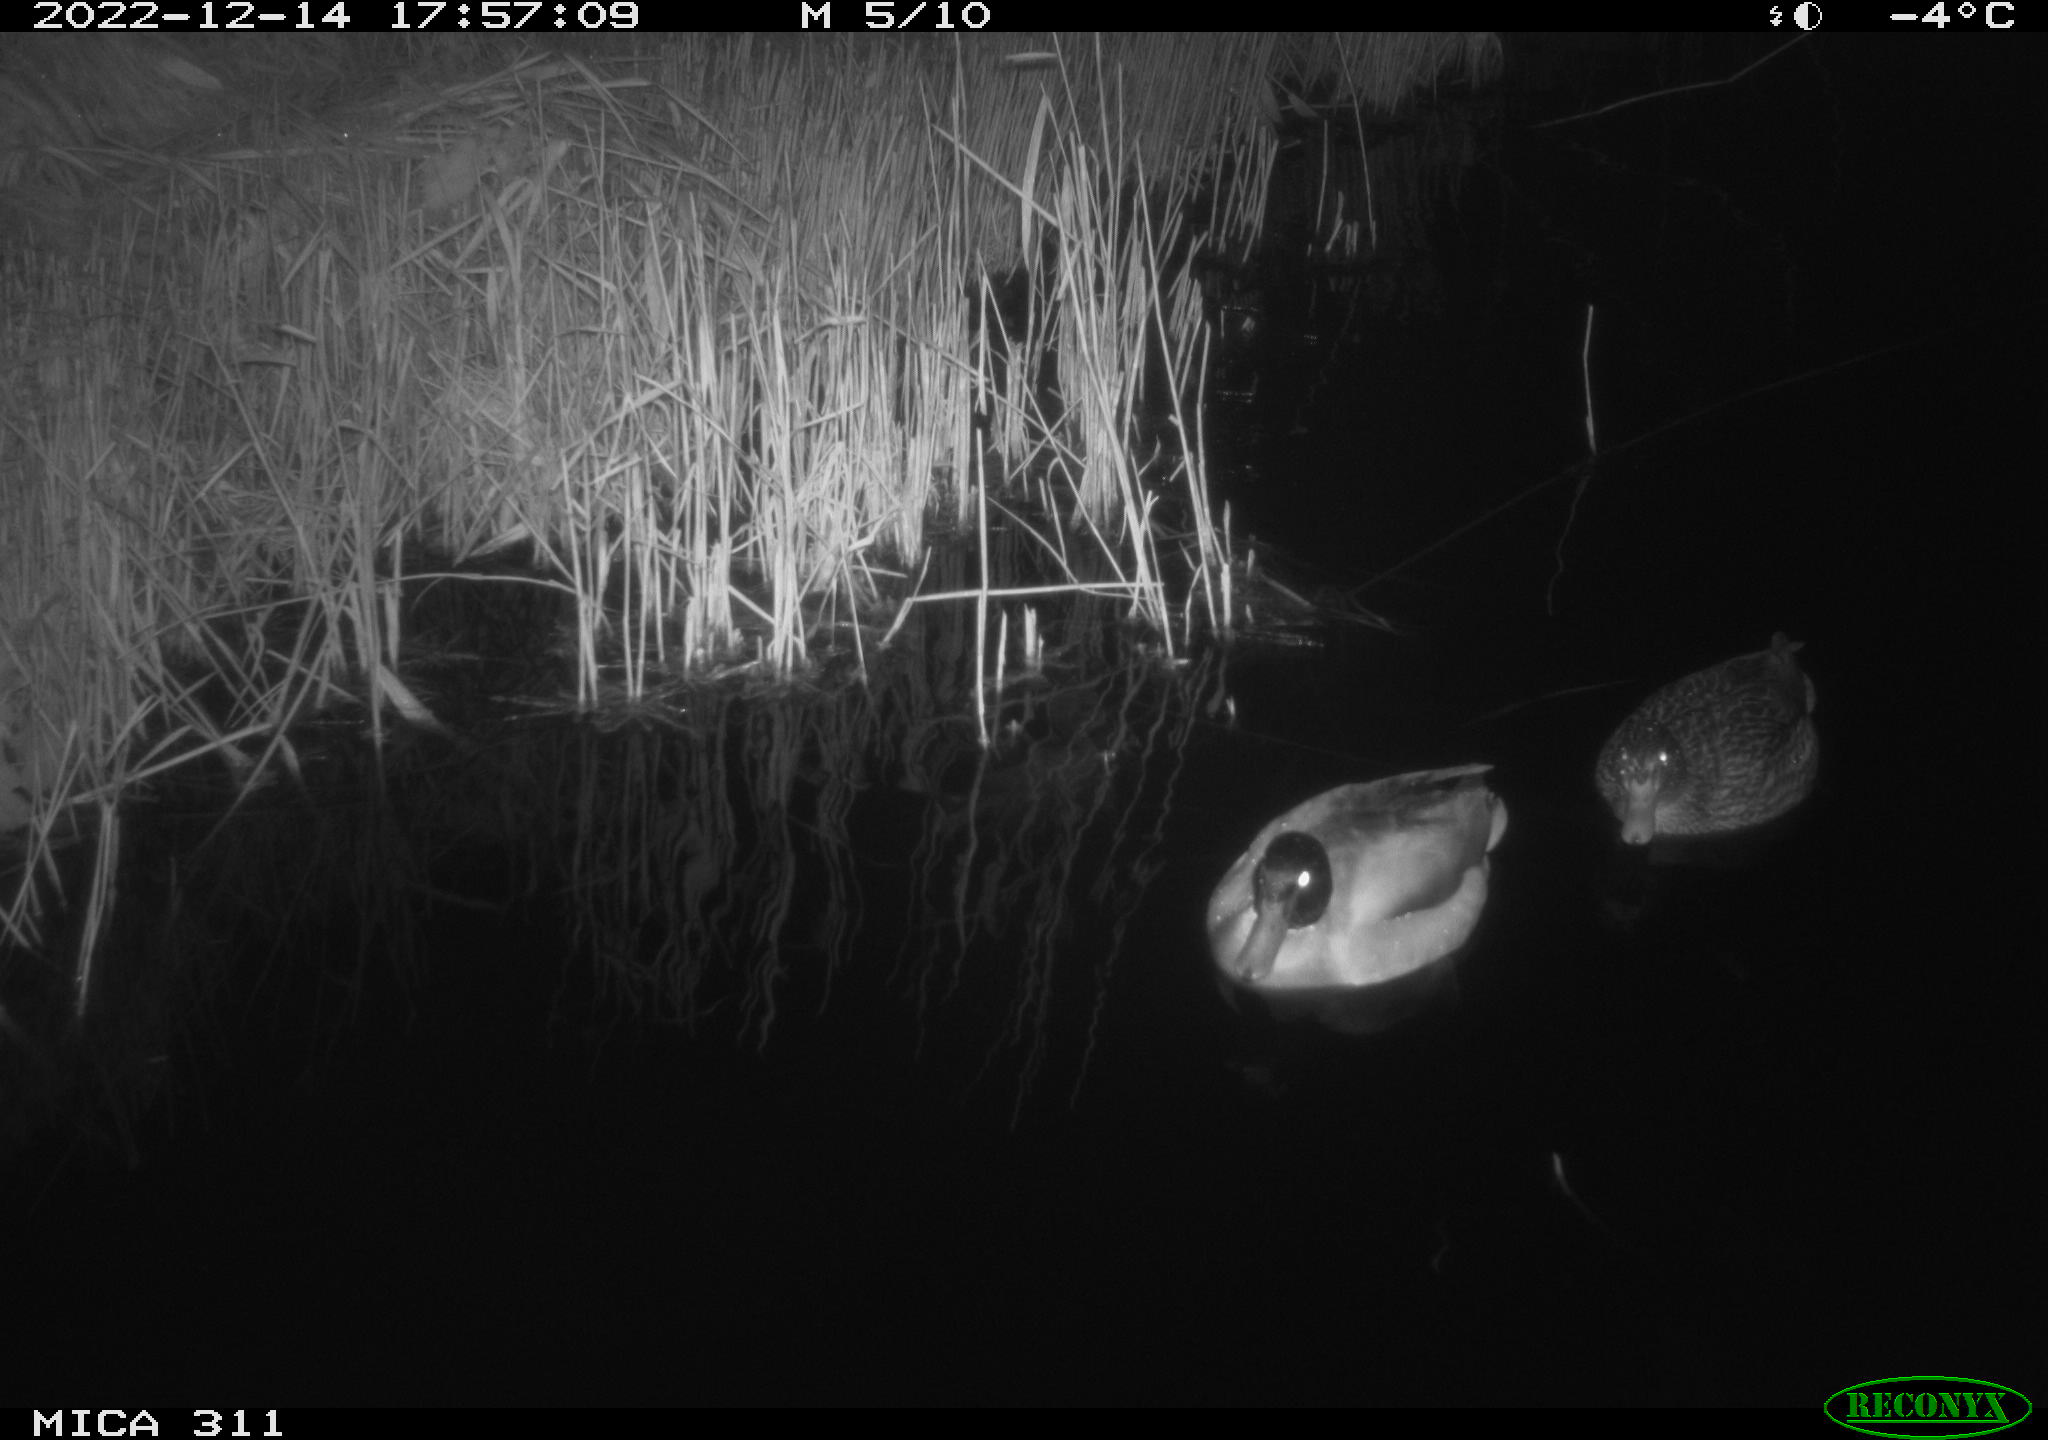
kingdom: Animalia
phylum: Chordata
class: Aves
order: Anseriformes
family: Anatidae
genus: Anas
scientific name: Anas
